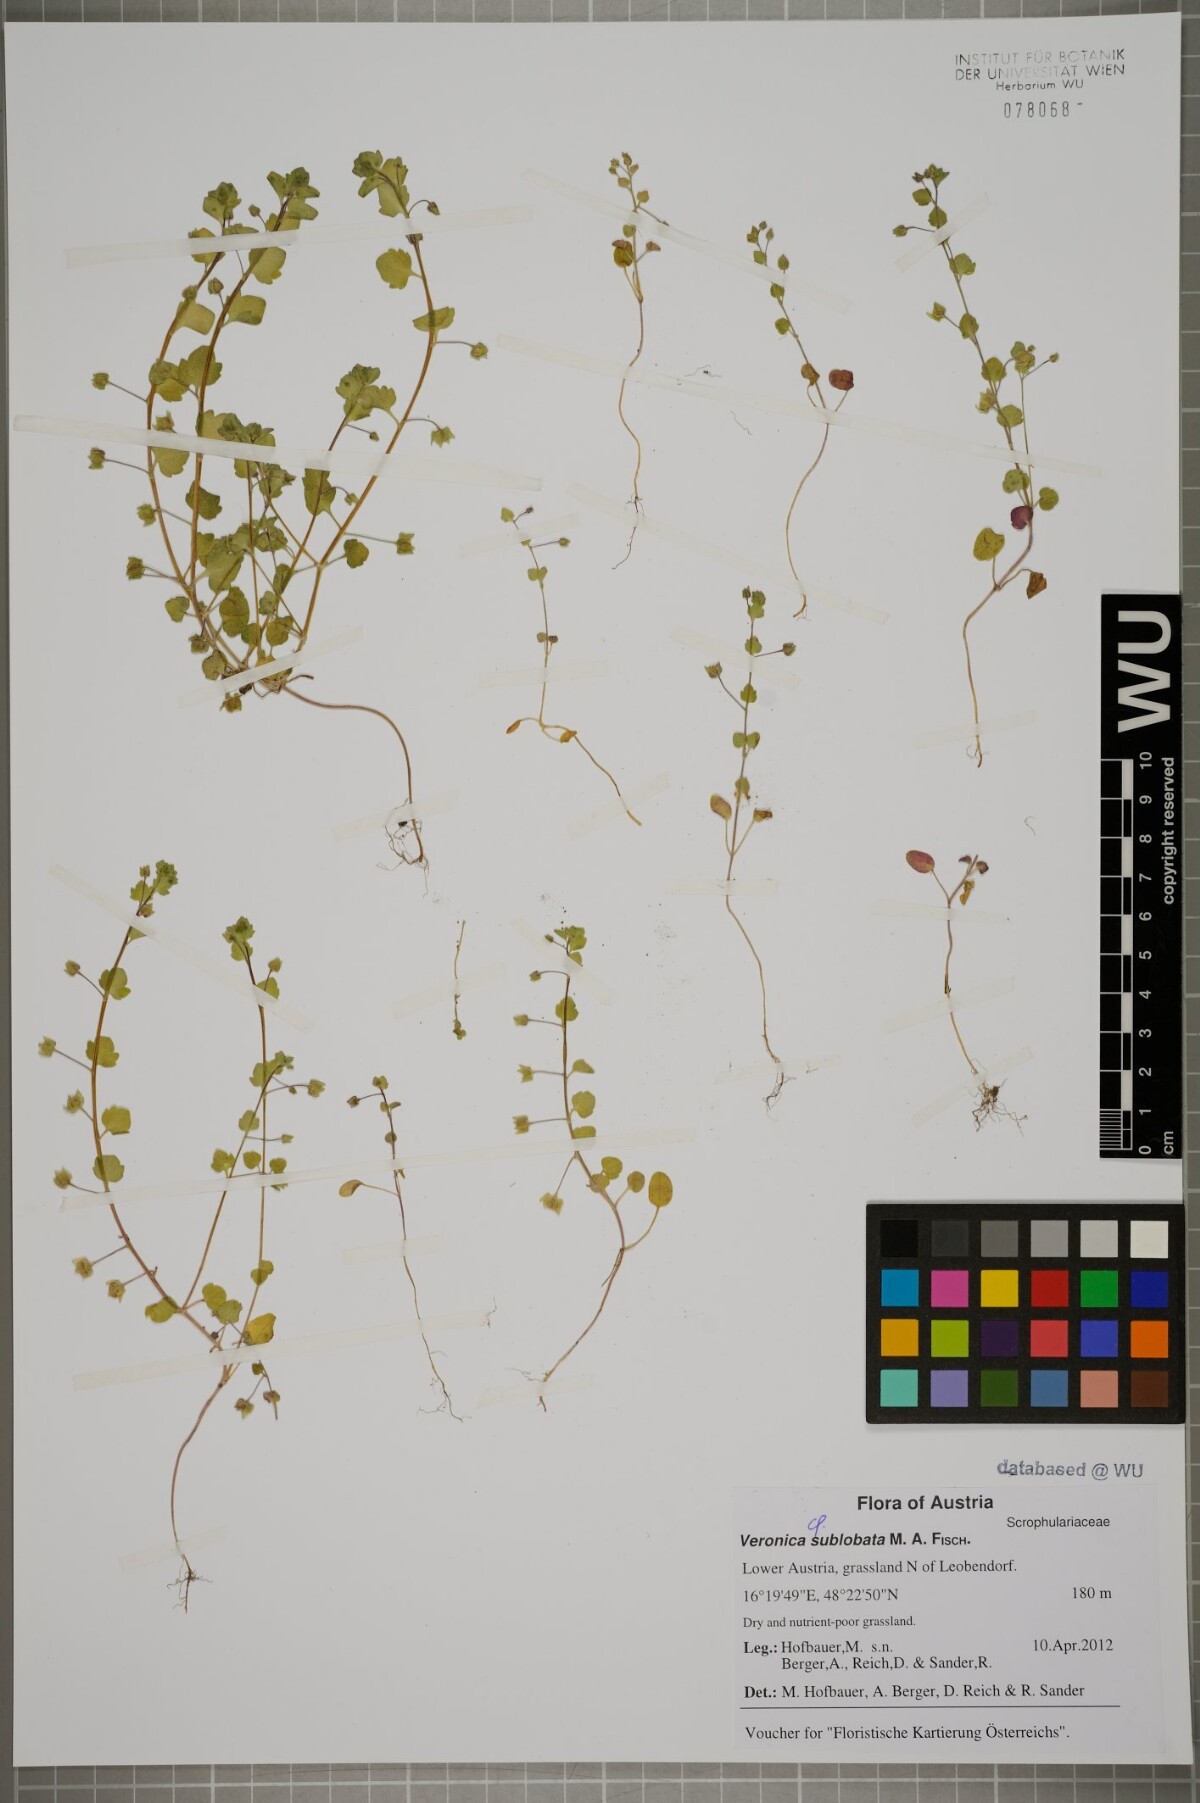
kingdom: Plantae
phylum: Tracheophyta
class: Magnoliopsida
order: Lamiales
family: Plantaginaceae
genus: Veronica
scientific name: Veronica sublobata
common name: False ivy-leaved speedwell
